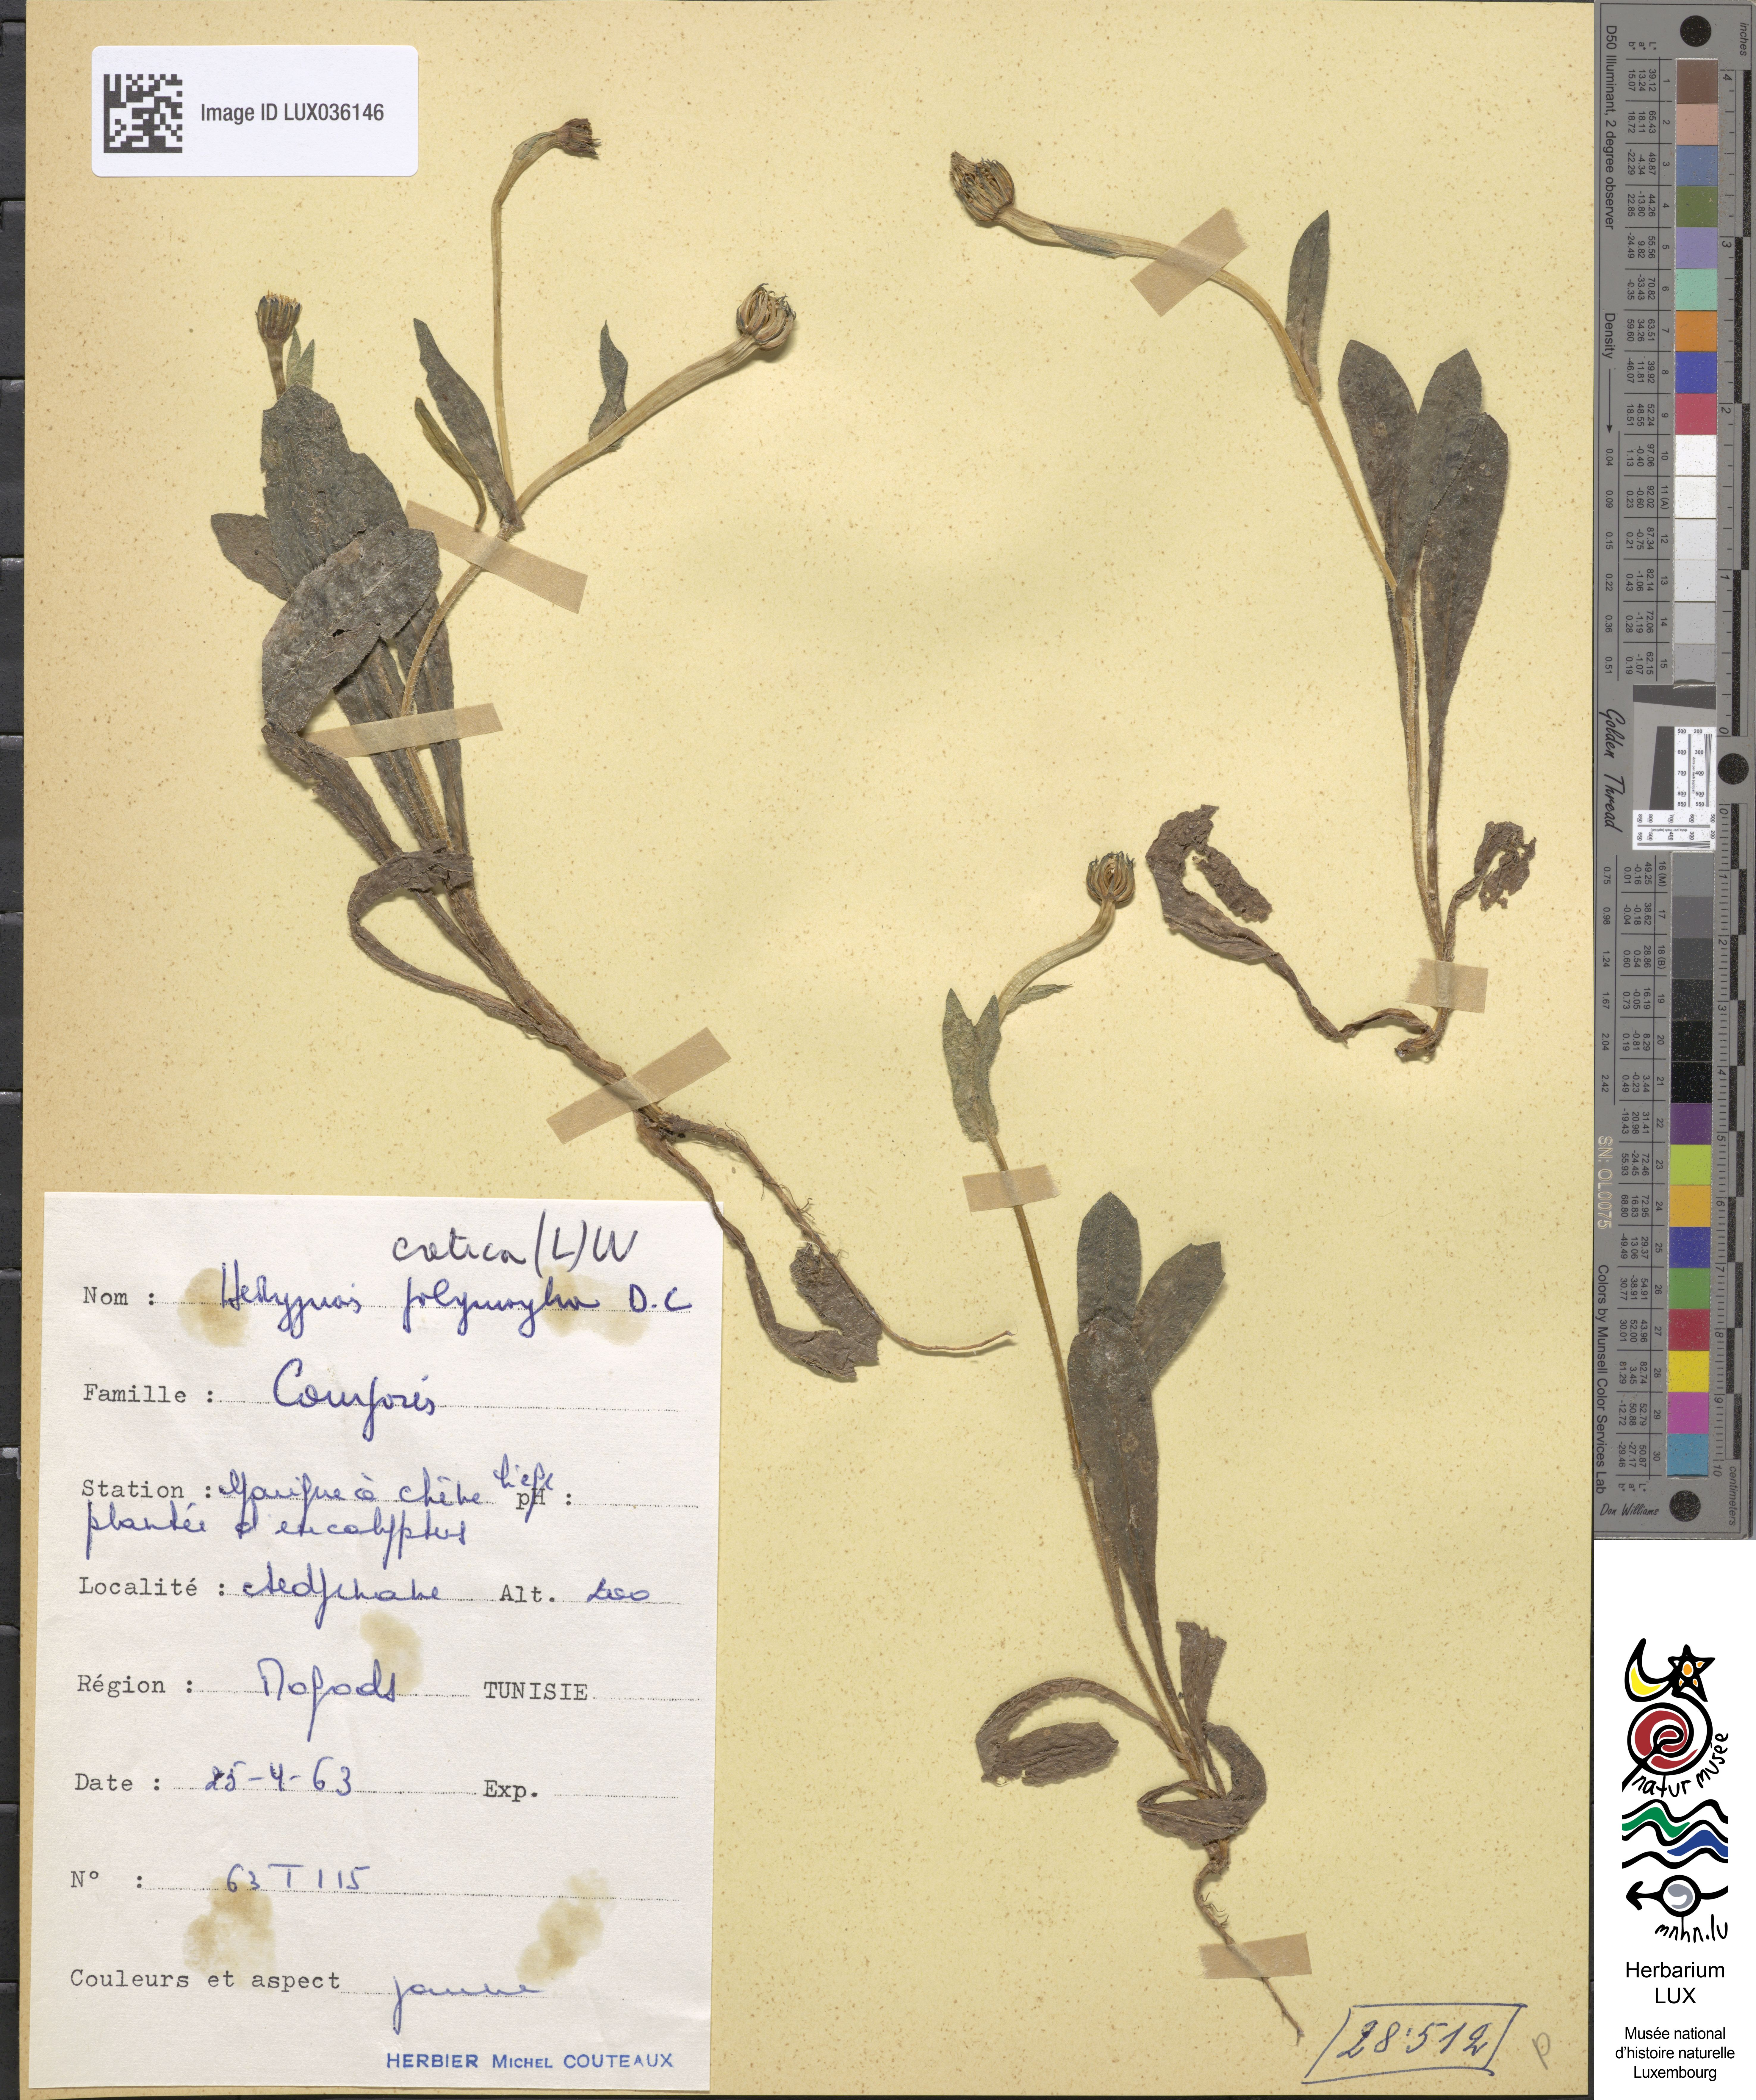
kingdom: Plantae
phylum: Tracheophyta
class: Magnoliopsida
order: Asterales
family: Asteraceae
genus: Hedypnois
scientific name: Hedypnois cretica
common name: Scaly hawkbit
